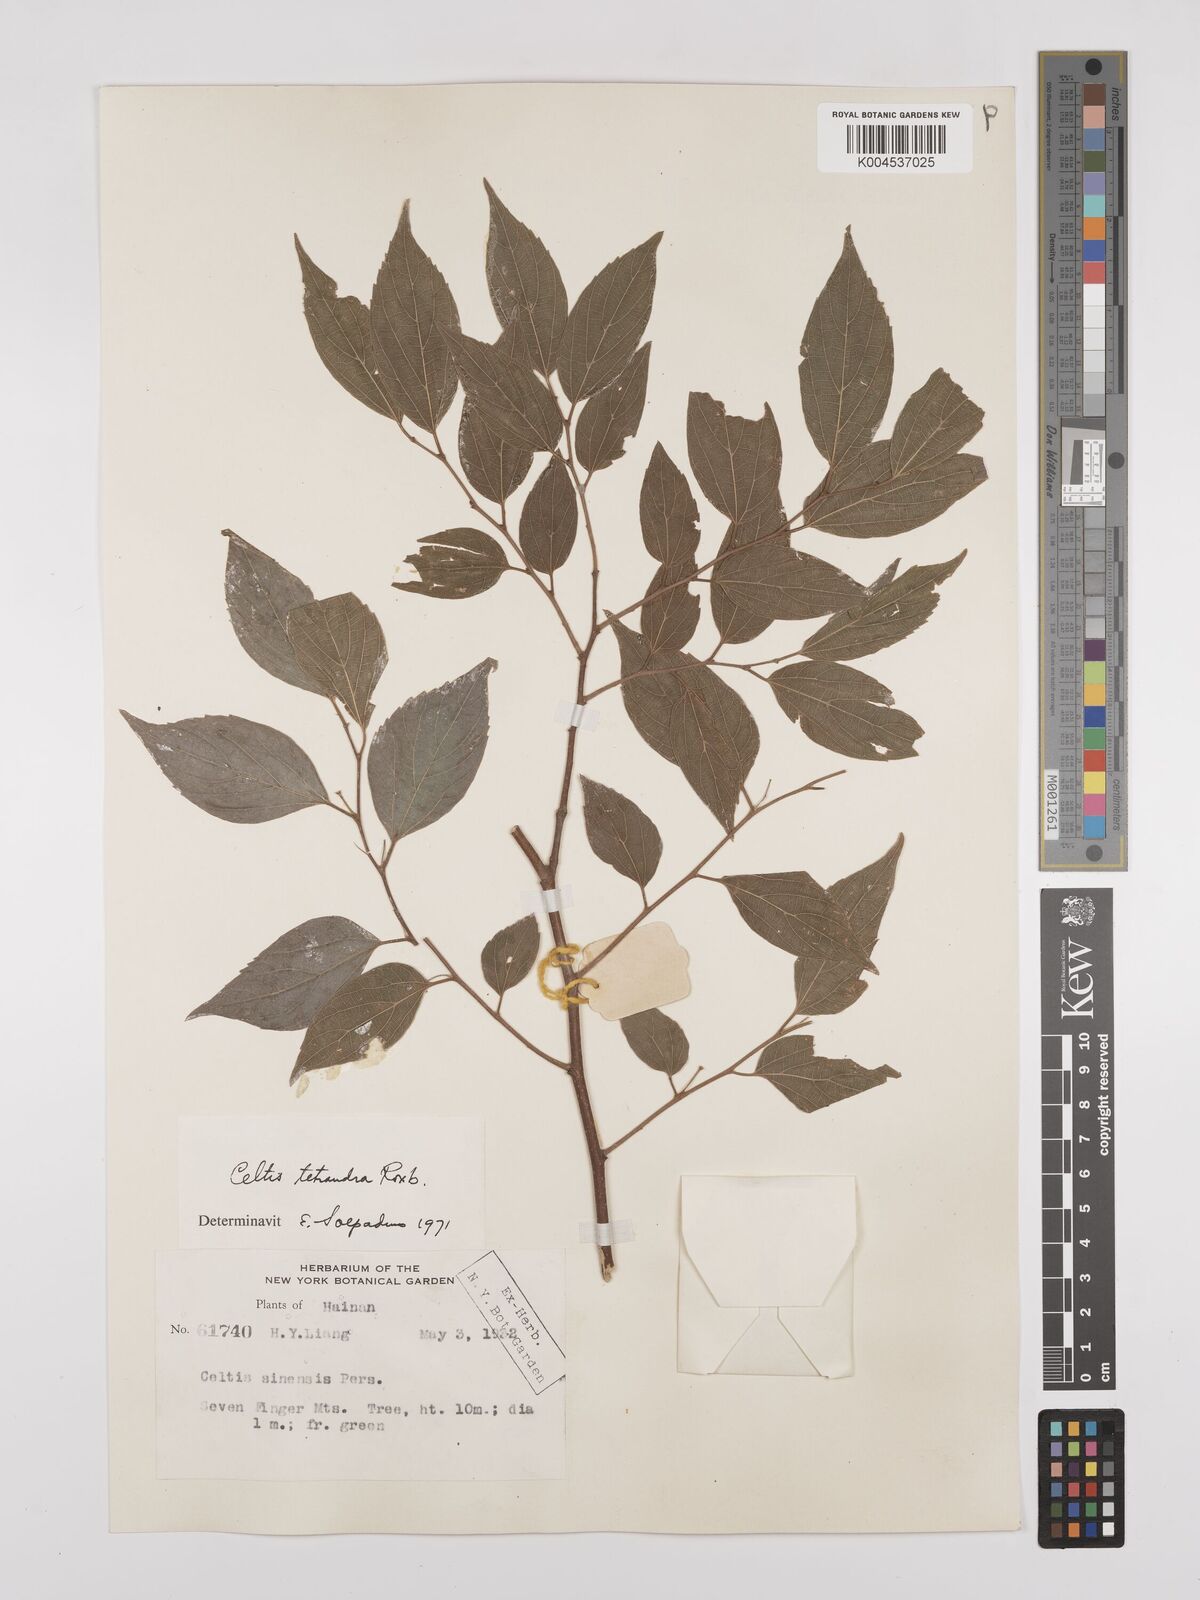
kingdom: Plantae
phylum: Tracheophyta
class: Magnoliopsida
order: Rosales
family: Cannabaceae
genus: Celtis
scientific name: Celtis tetrandra
